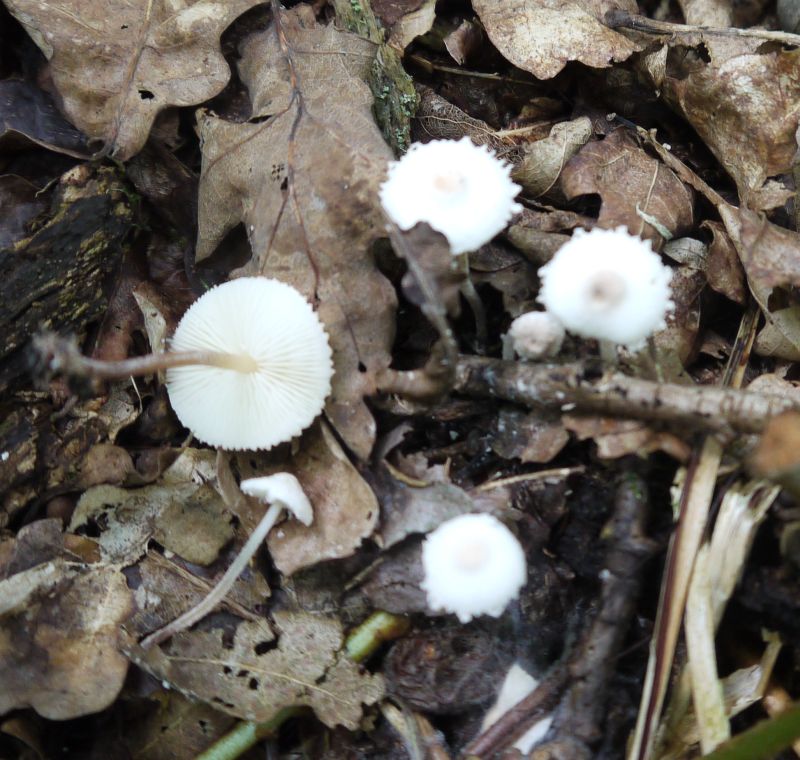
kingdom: Fungi
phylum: Basidiomycota
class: Agaricomycetes
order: Agaricales
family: Agaricaceae
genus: Cystolepiota
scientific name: Cystolepiota seminuda
